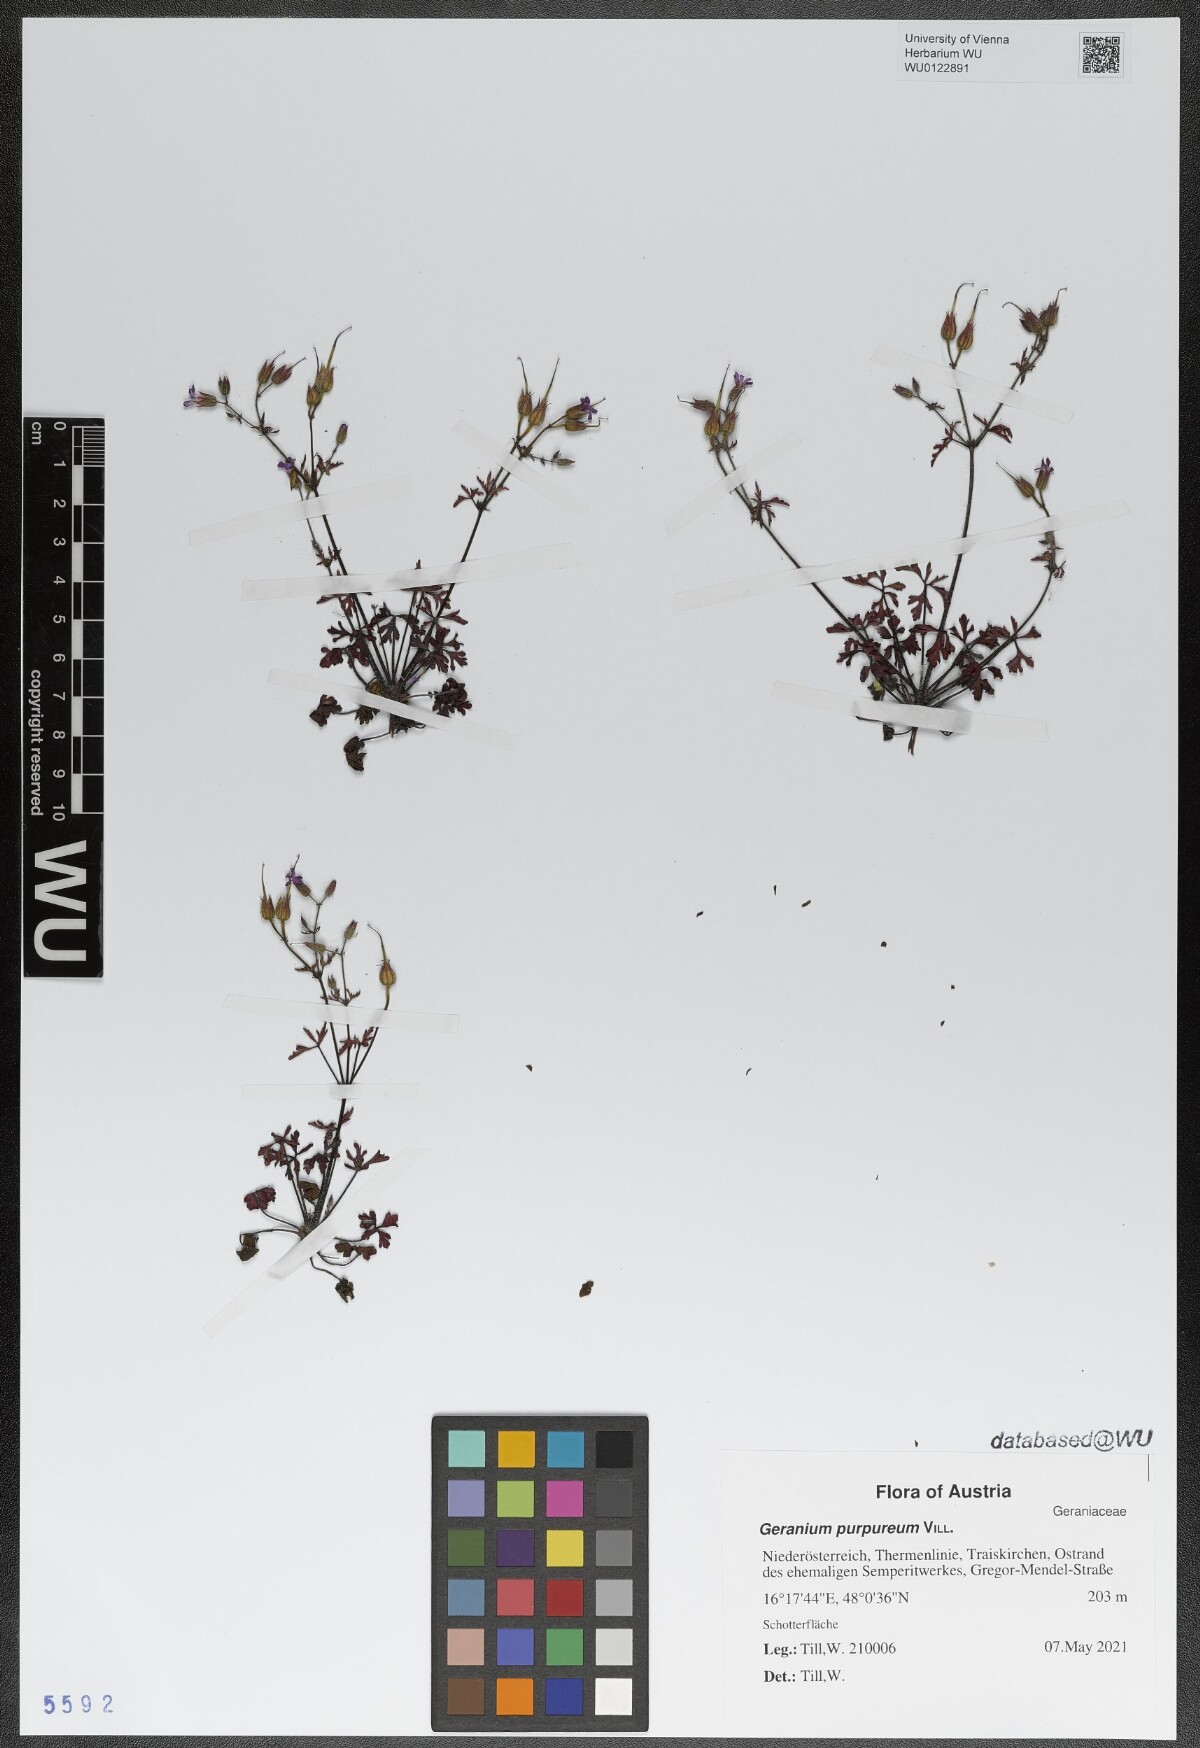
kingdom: Plantae
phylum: Tracheophyta
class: Magnoliopsida
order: Geraniales
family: Geraniaceae
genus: Geranium
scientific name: Geranium purpureum
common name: Little-robin
